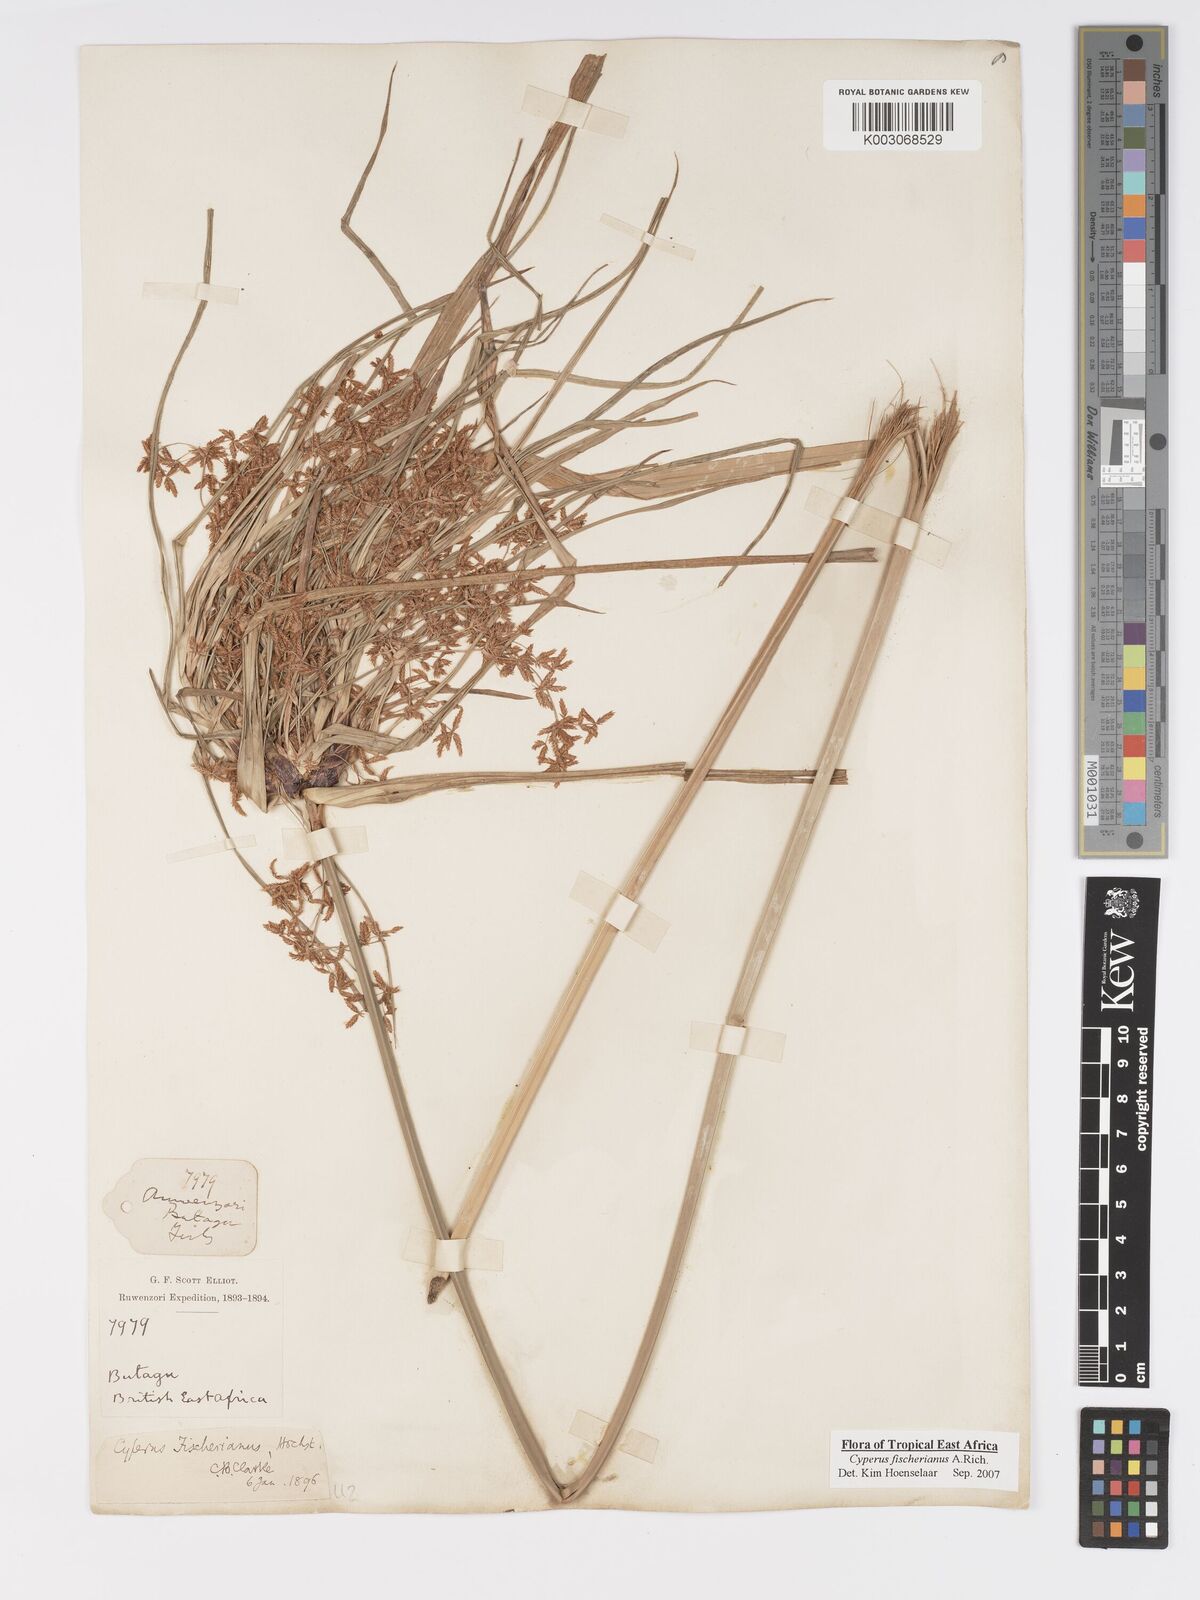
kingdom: Plantae
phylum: Tracheophyta
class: Liliopsida
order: Poales
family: Cyperaceae
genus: Cyperus
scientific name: Cyperus fischerianus
